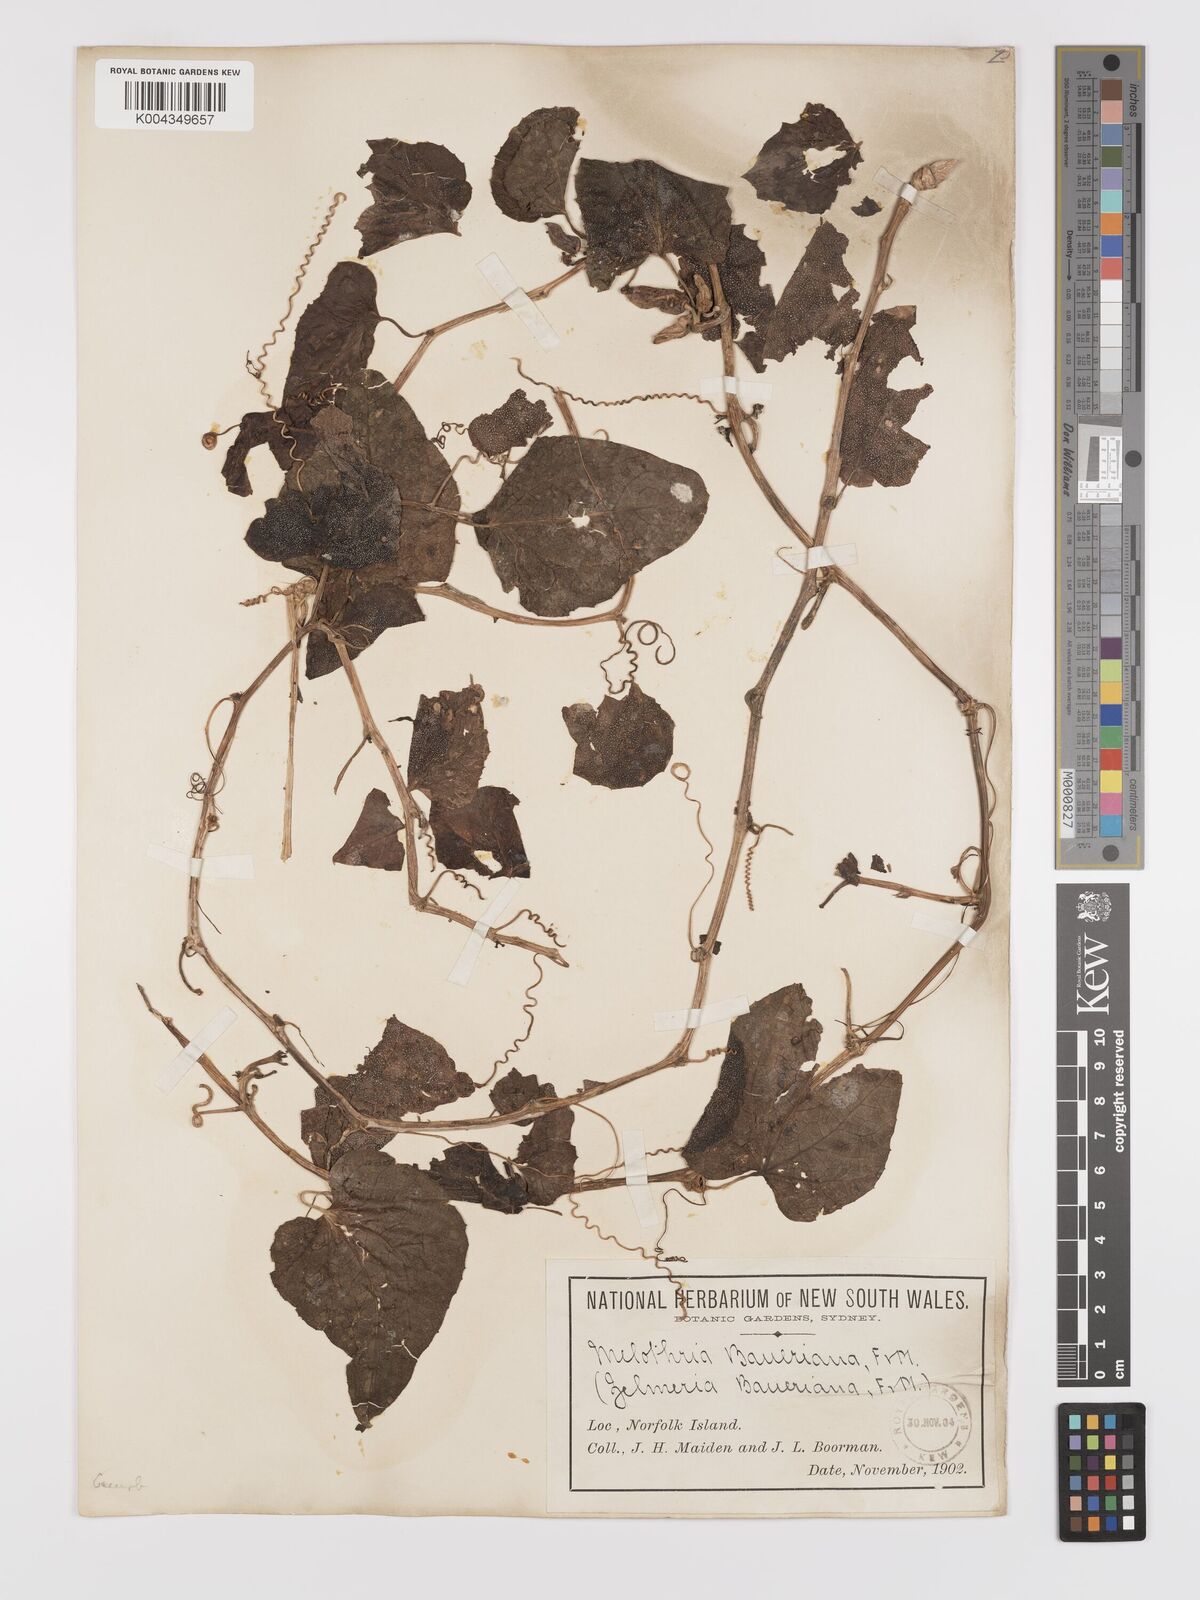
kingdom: Plantae
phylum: Tracheophyta
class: Magnoliopsida
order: Cucurbitales
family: Cucurbitaceae
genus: Zehneria
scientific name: Zehneria mucronata
